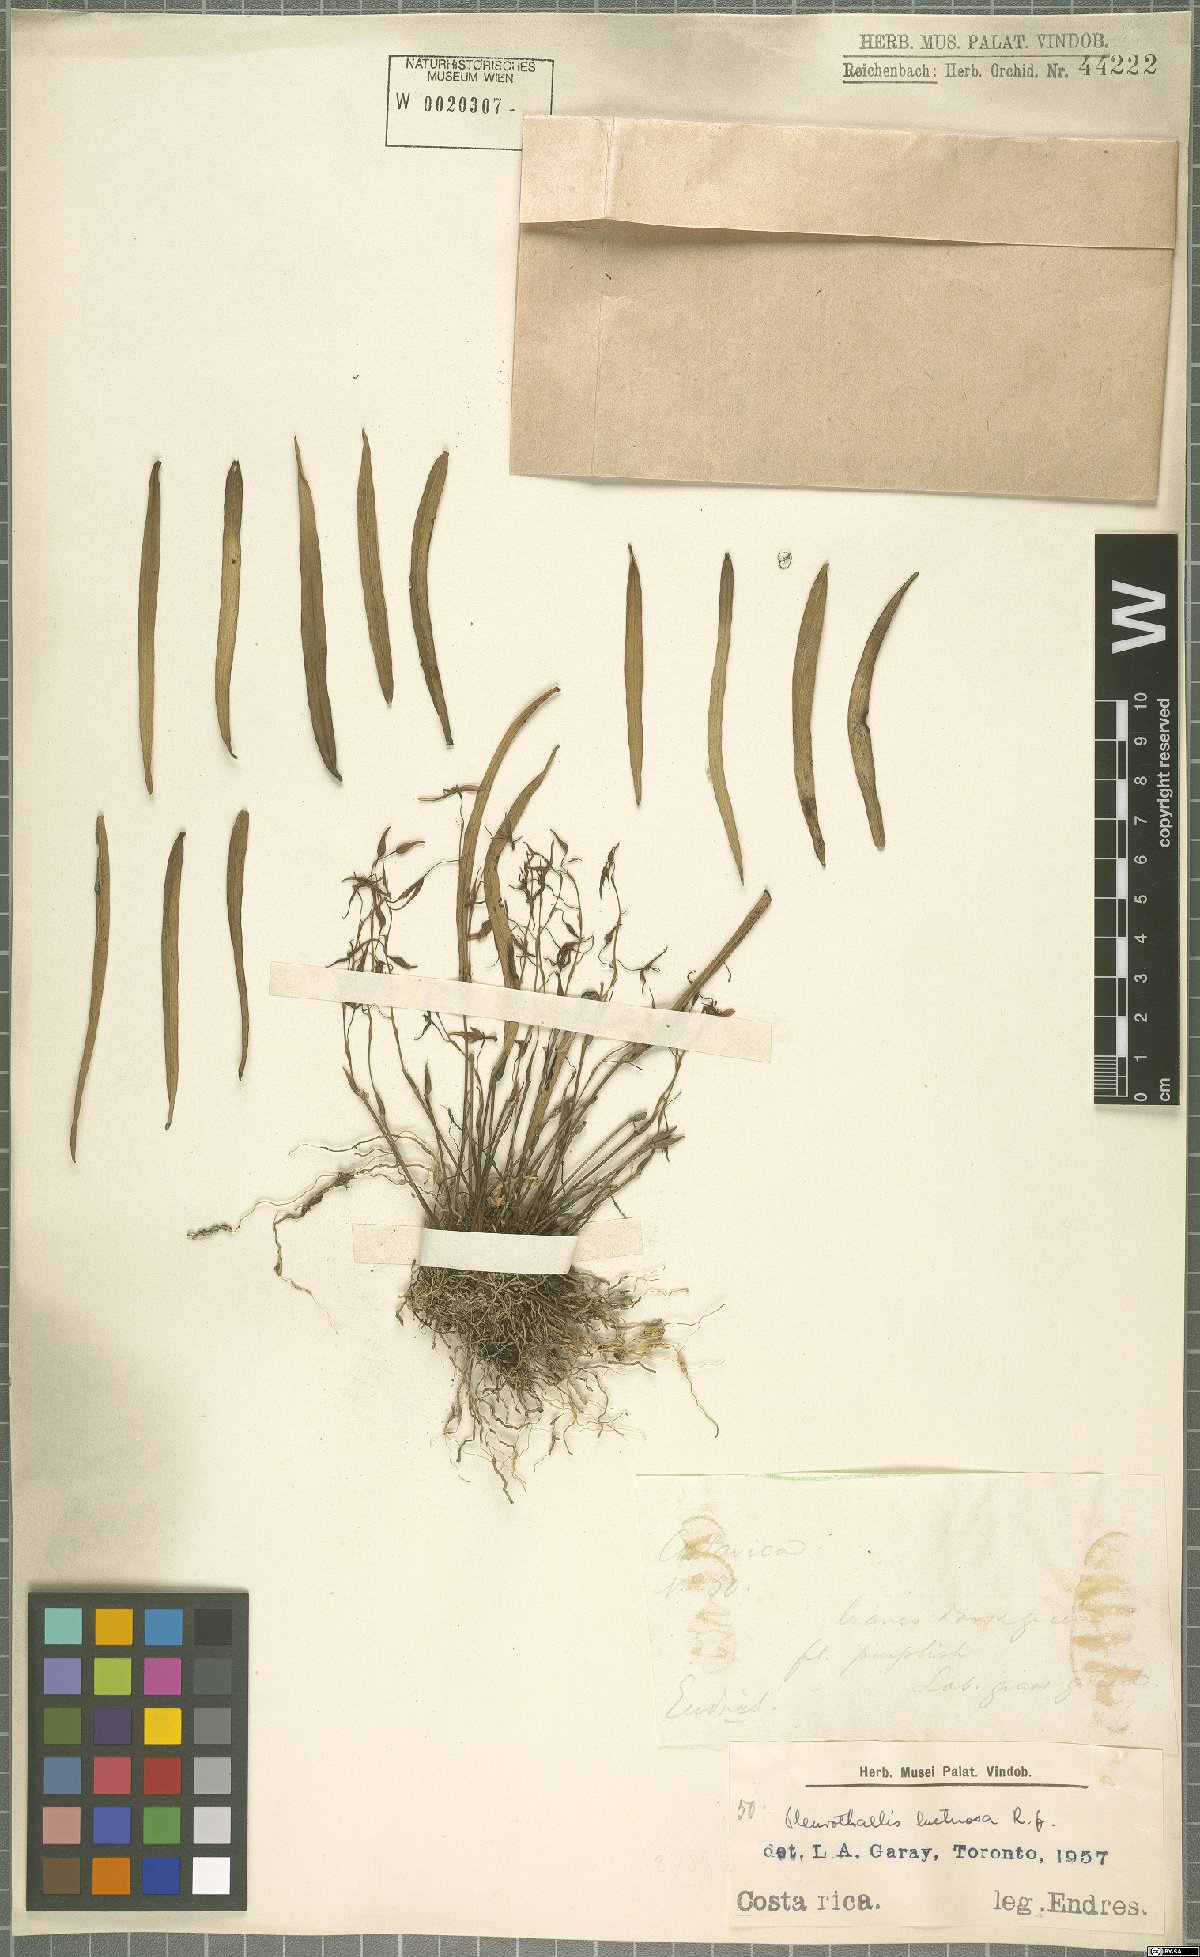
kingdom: Plantae
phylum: Tracheophyta
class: Liliopsida
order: Asparagales
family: Orchidaceae
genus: Pleurothallis
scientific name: Pleurothallis luctuosa
